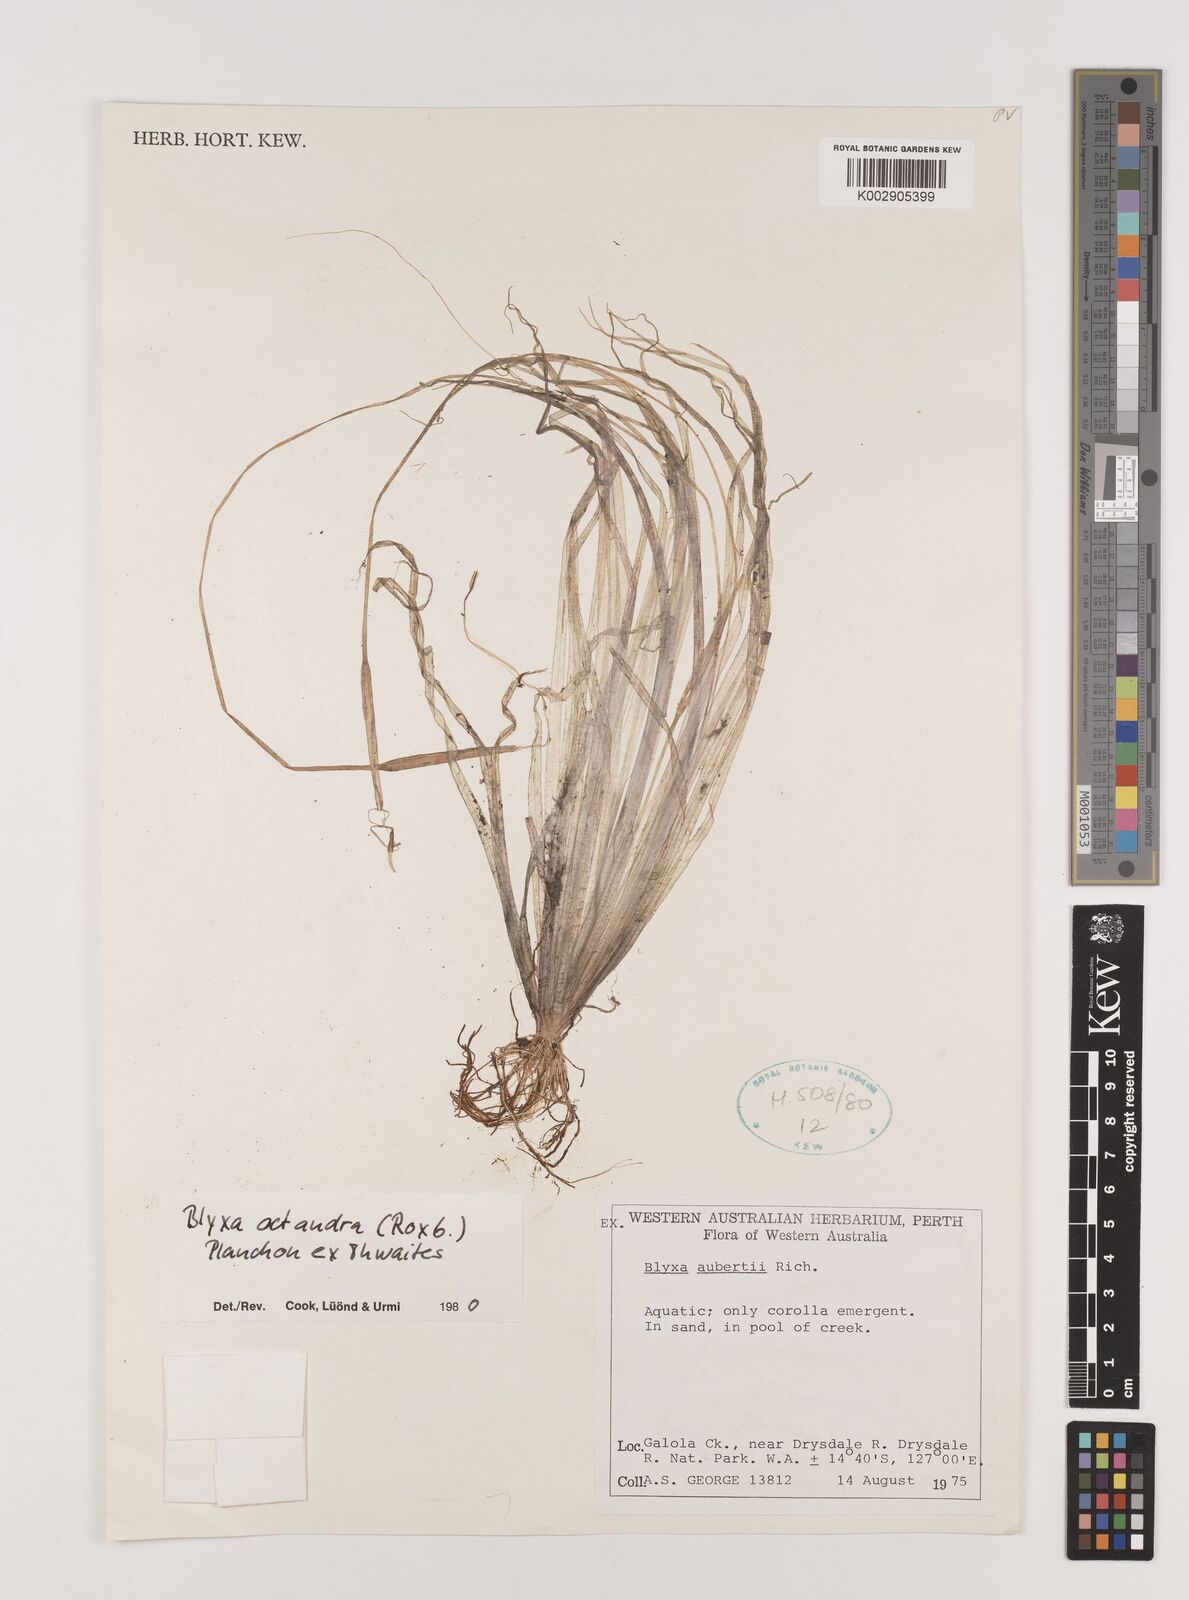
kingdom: Plantae
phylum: Tracheophyta
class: Liliopsida
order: Alismatales
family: Hydrocharitaceae
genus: Blyxa
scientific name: Blyxa octandra
